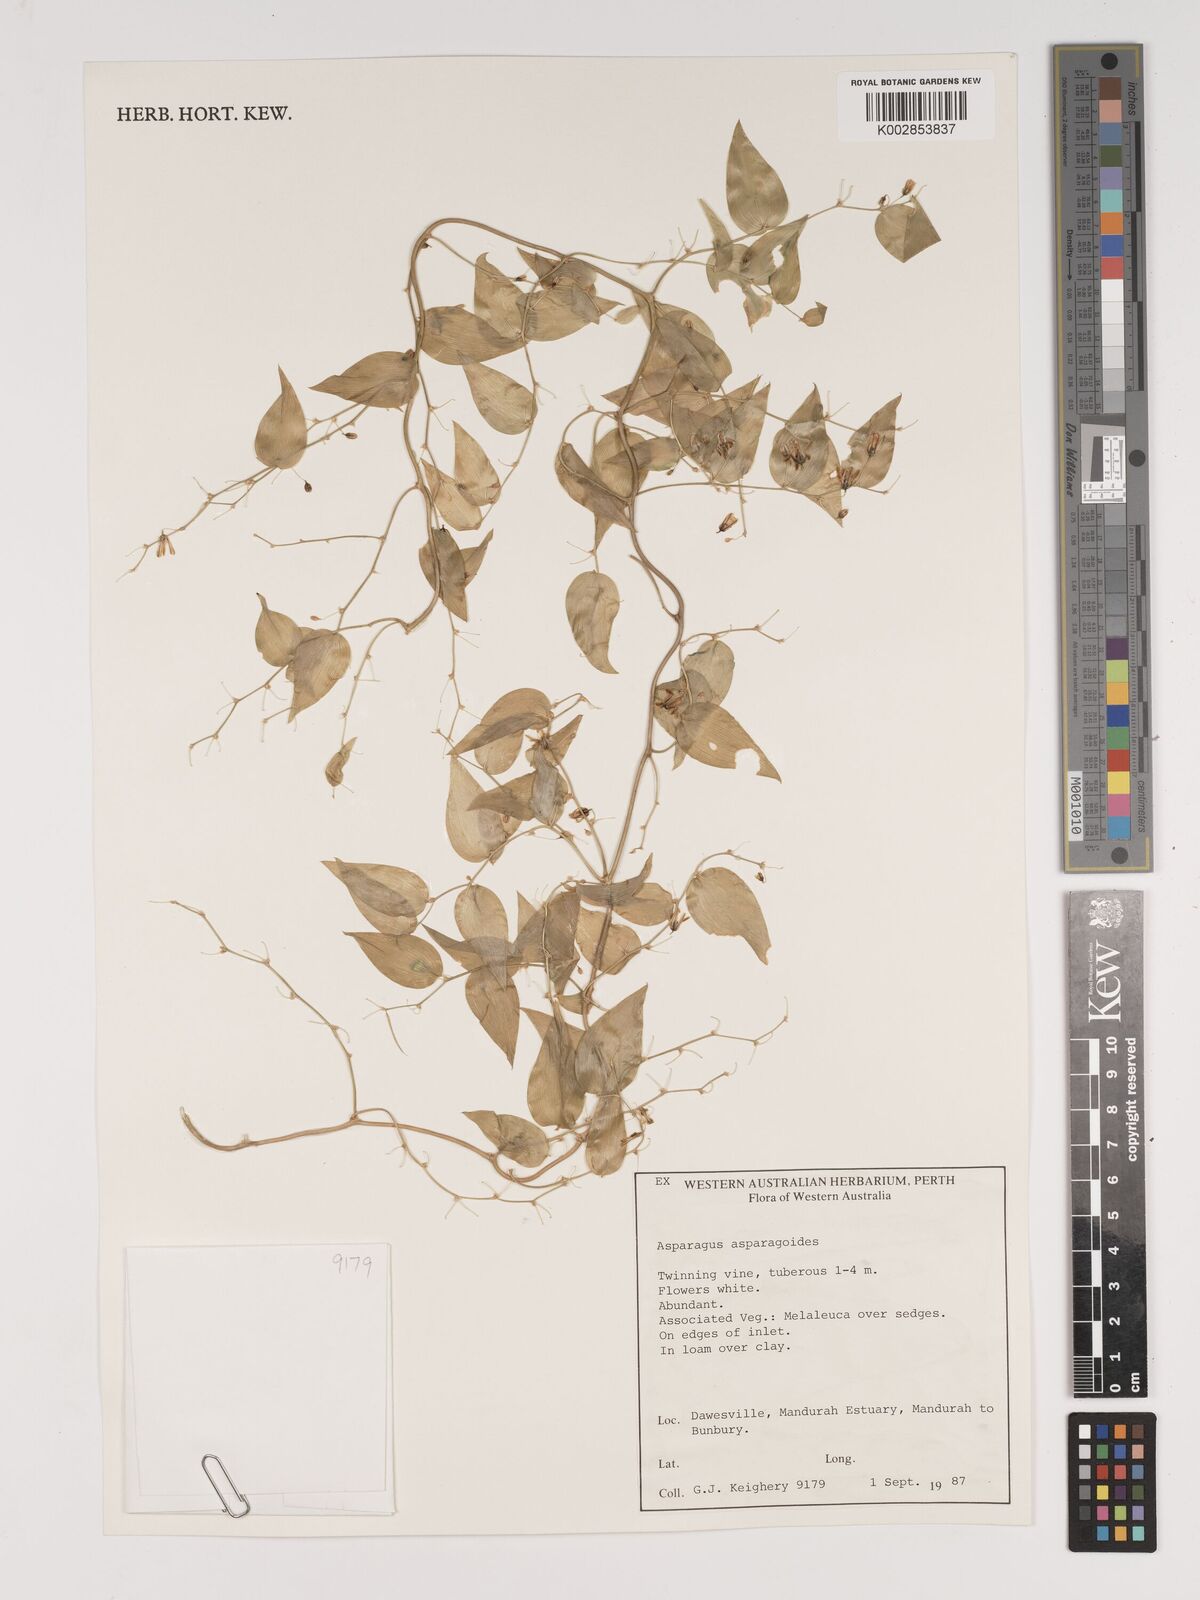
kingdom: Plantae
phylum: Tracheophyta
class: Liliopsida
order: Asparagales
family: Asparagaceae
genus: Asparagus
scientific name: Asparagus asparagoides
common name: African asparagus fern
